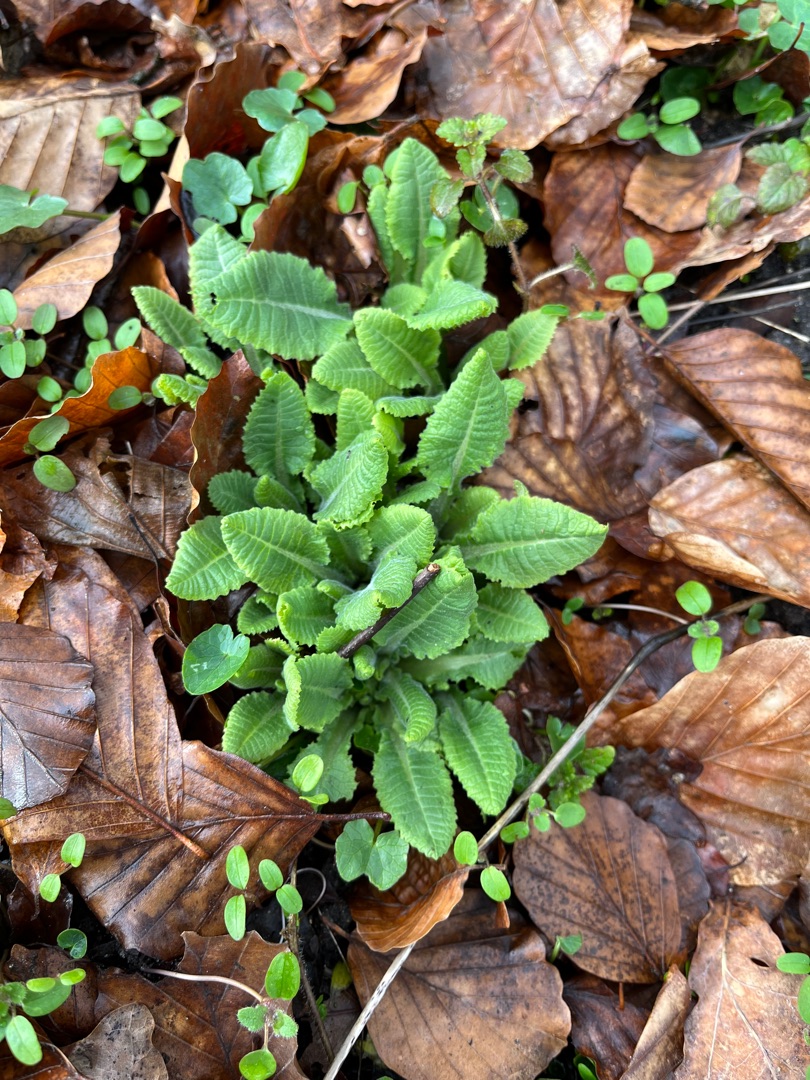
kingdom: Plantae
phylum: Tracheophyta
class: Magnoliopsida
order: Ericales
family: Primulaceae
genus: Primula
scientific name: Primula elatior
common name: Fladkravet kodriver
